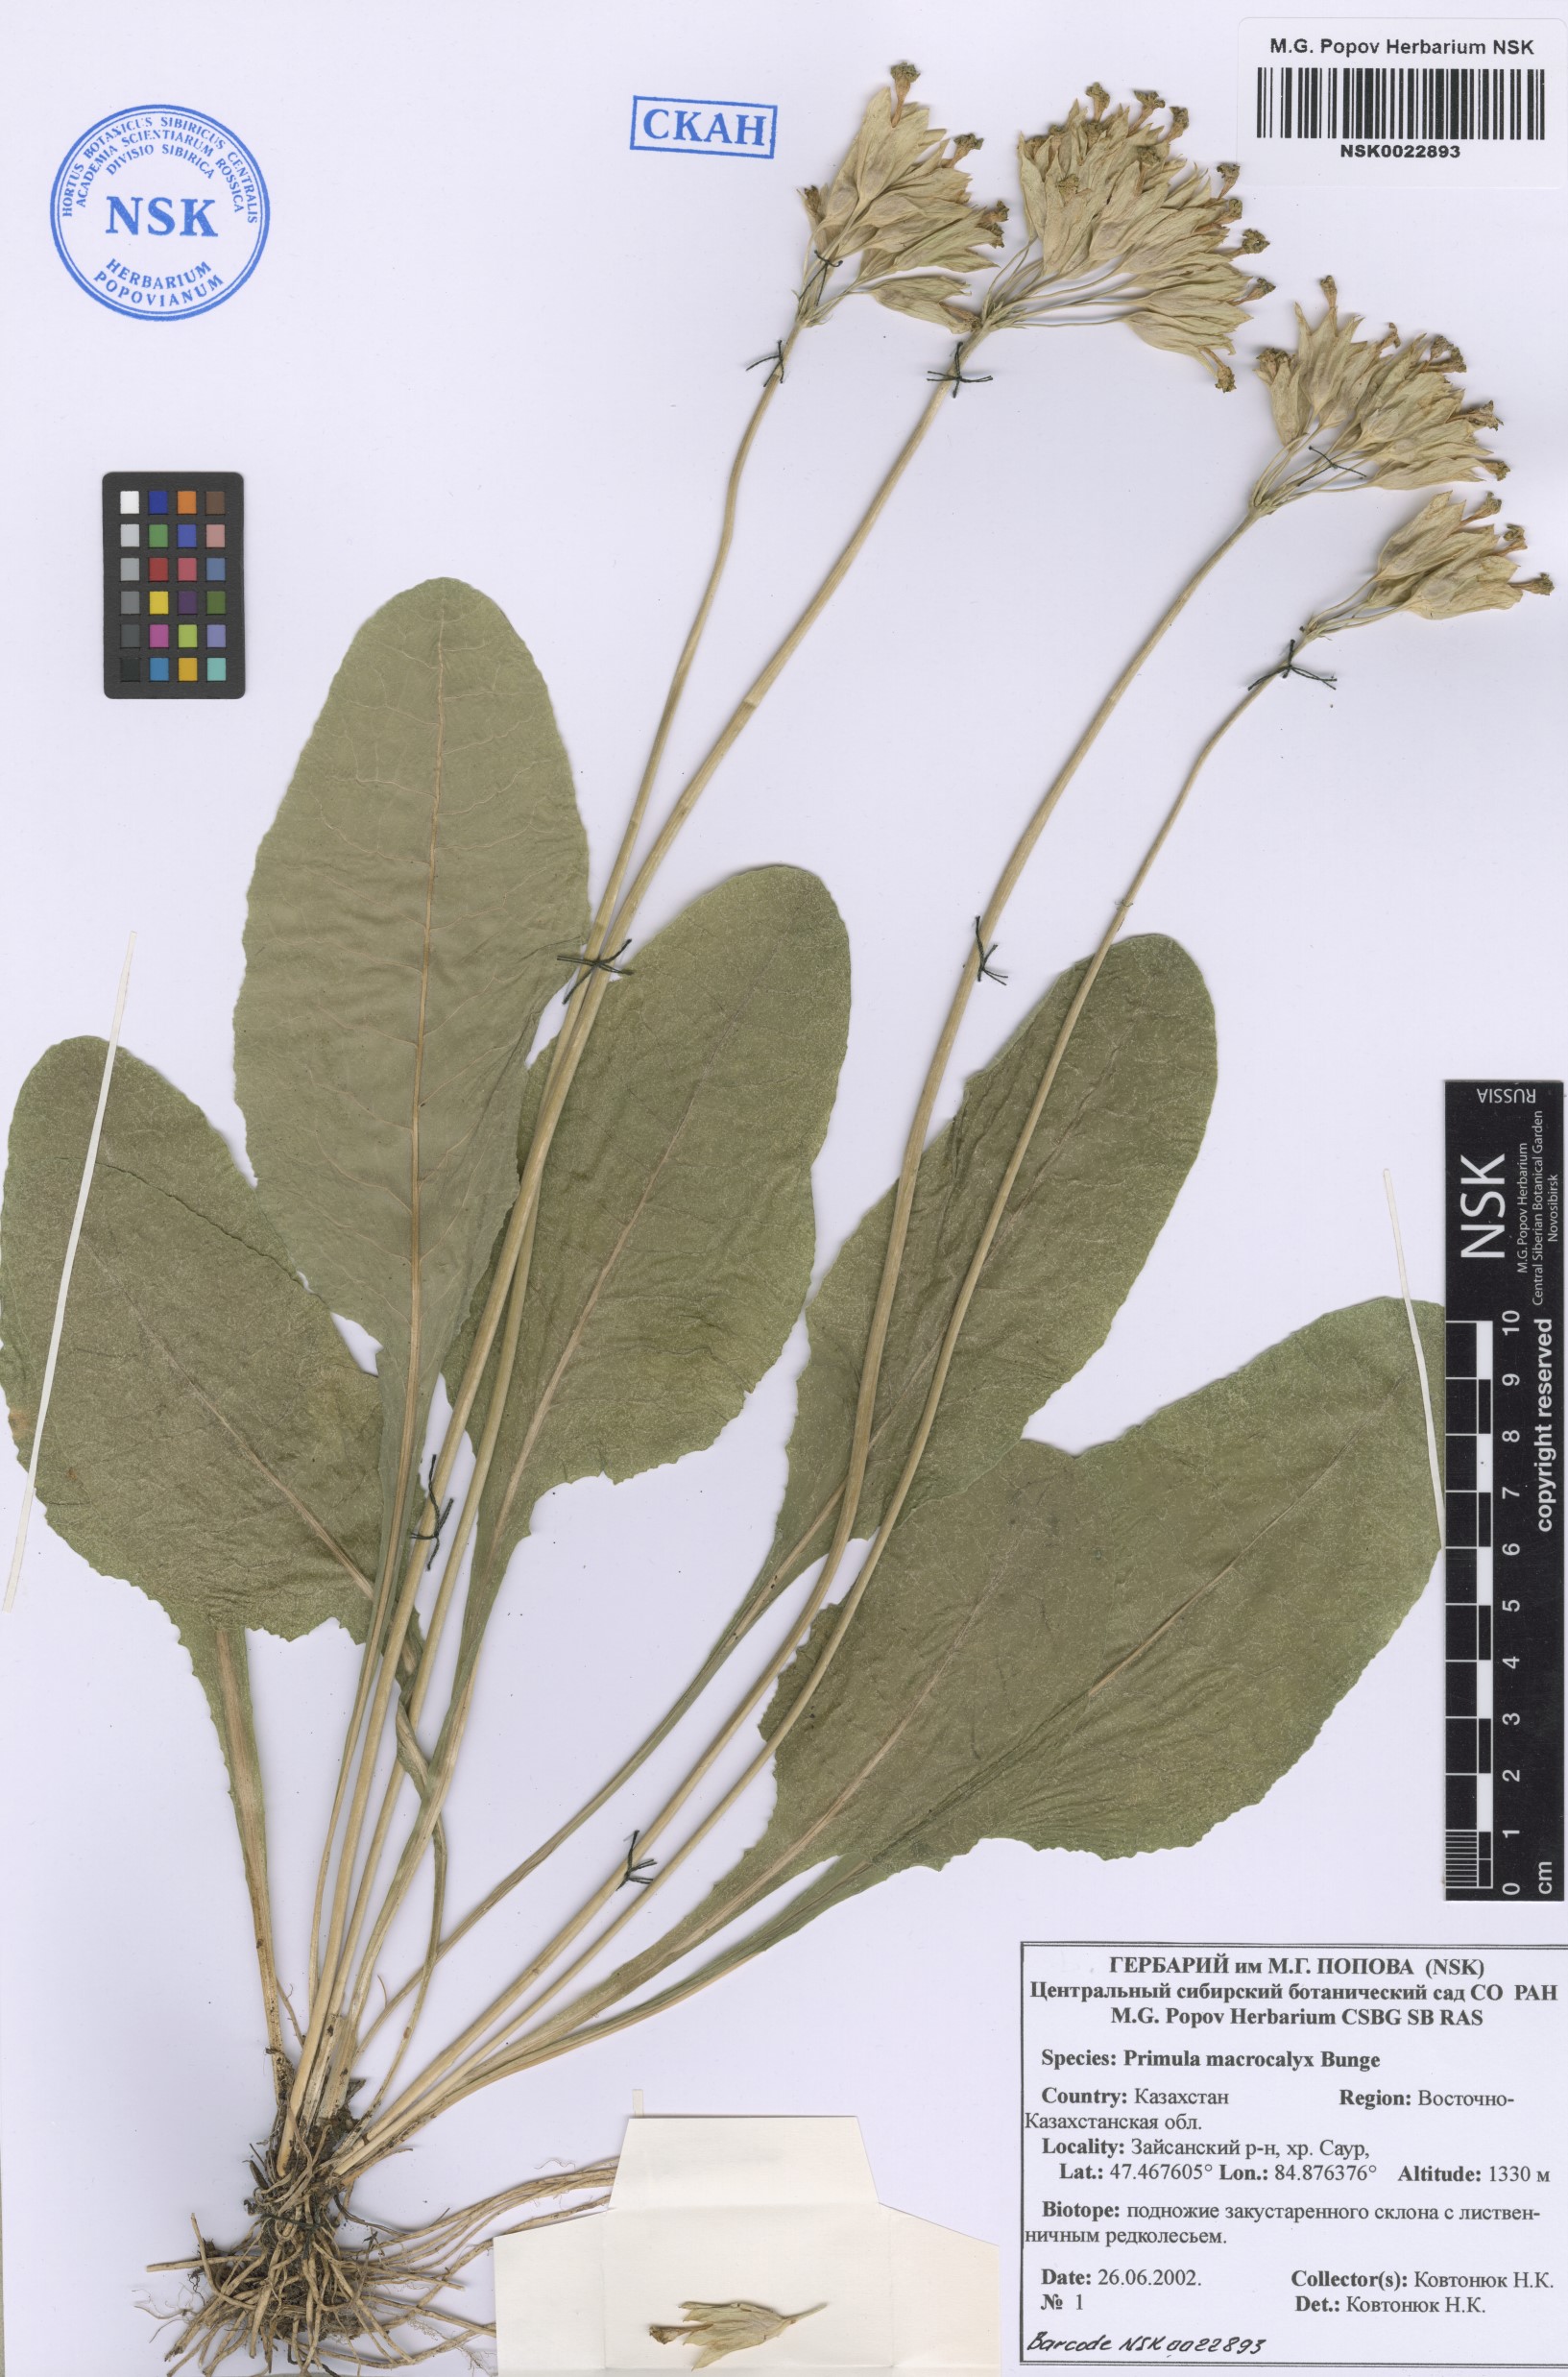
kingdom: Plantae
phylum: Tracheophyta
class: Magnoliopsida
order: Ericales
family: Primulaceae
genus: Primula
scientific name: Primula veris
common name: Cowslip
